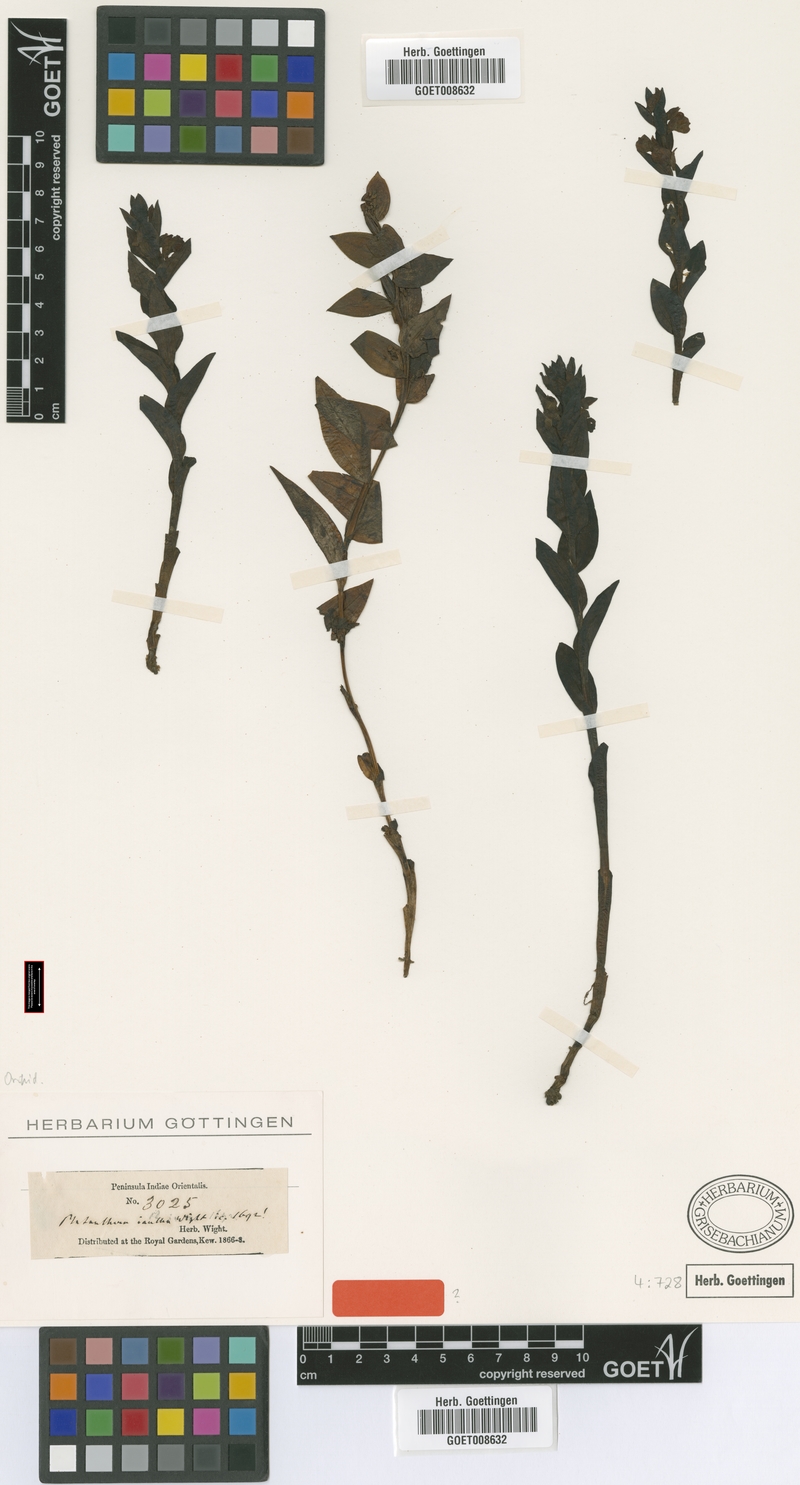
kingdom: Plantae
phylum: Tracheophyta
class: Liliopsida
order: Asparagales
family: Orchidaceae
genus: Brachycorythis
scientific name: Brachycorythis iantha
